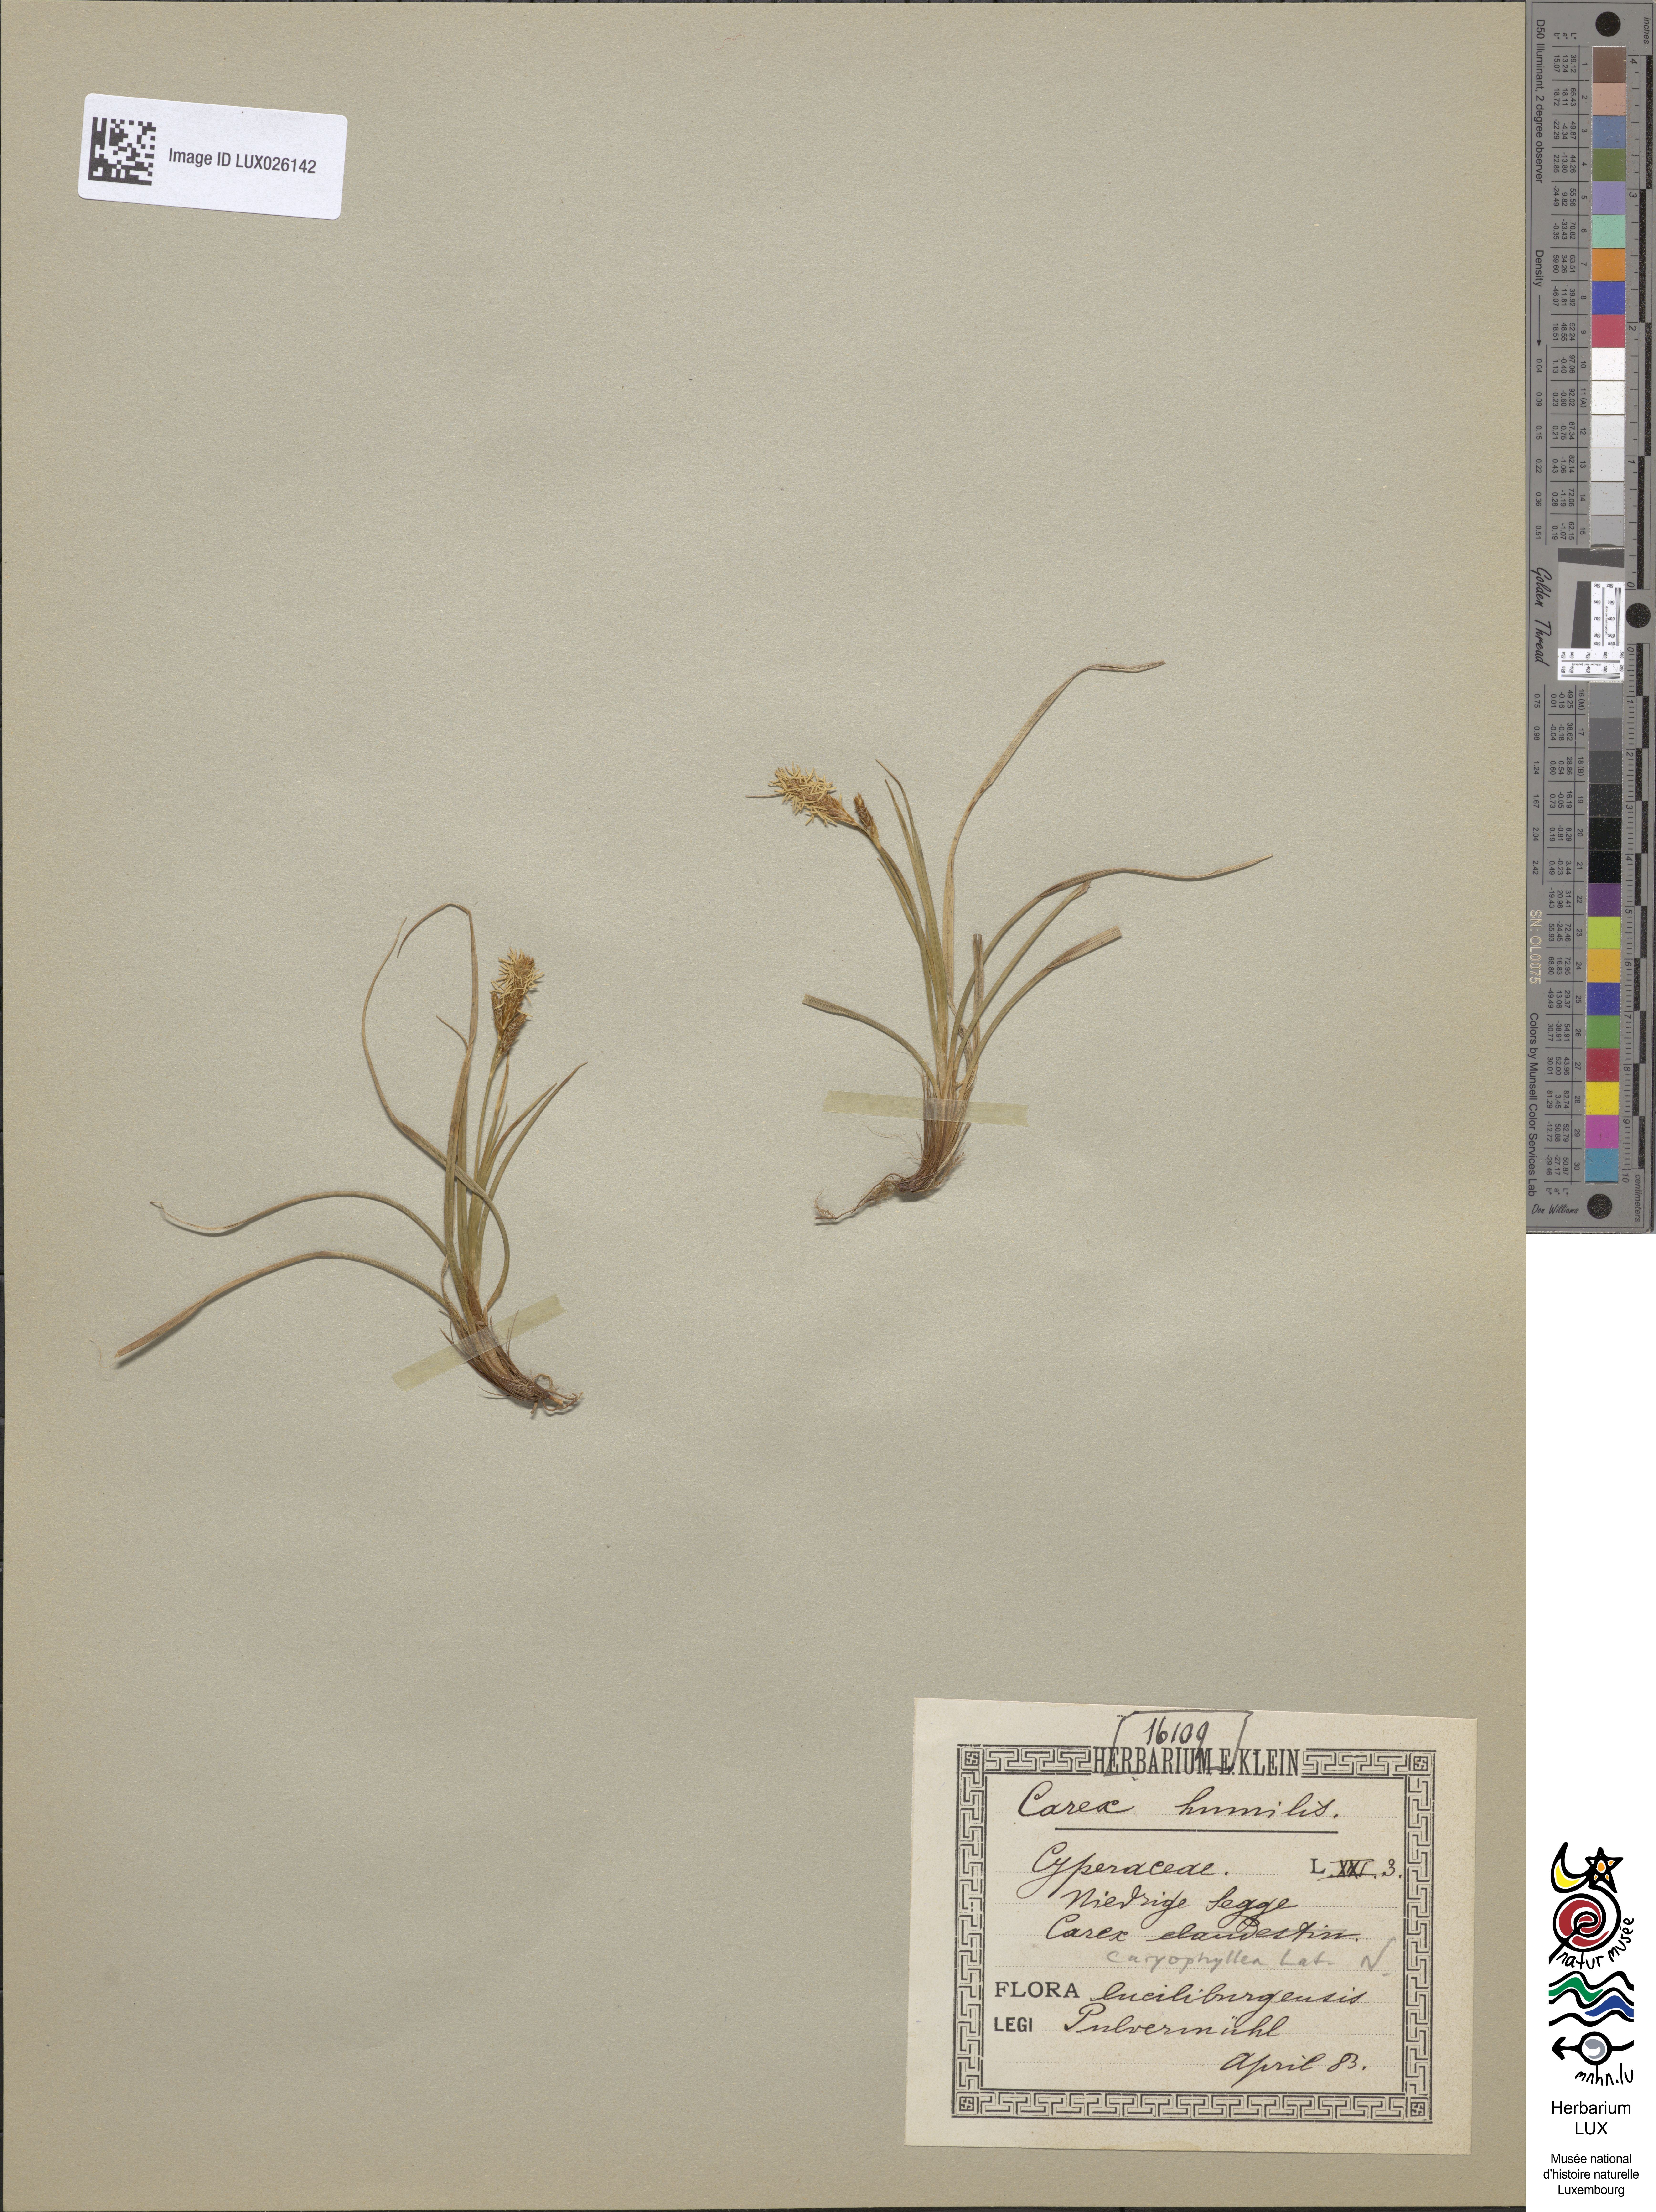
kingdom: Plantae
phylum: Tracheophyta
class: Liliopsida
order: Poales
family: Cyperaceae
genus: Carex
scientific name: Carex humilis
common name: Dwarf sedge
